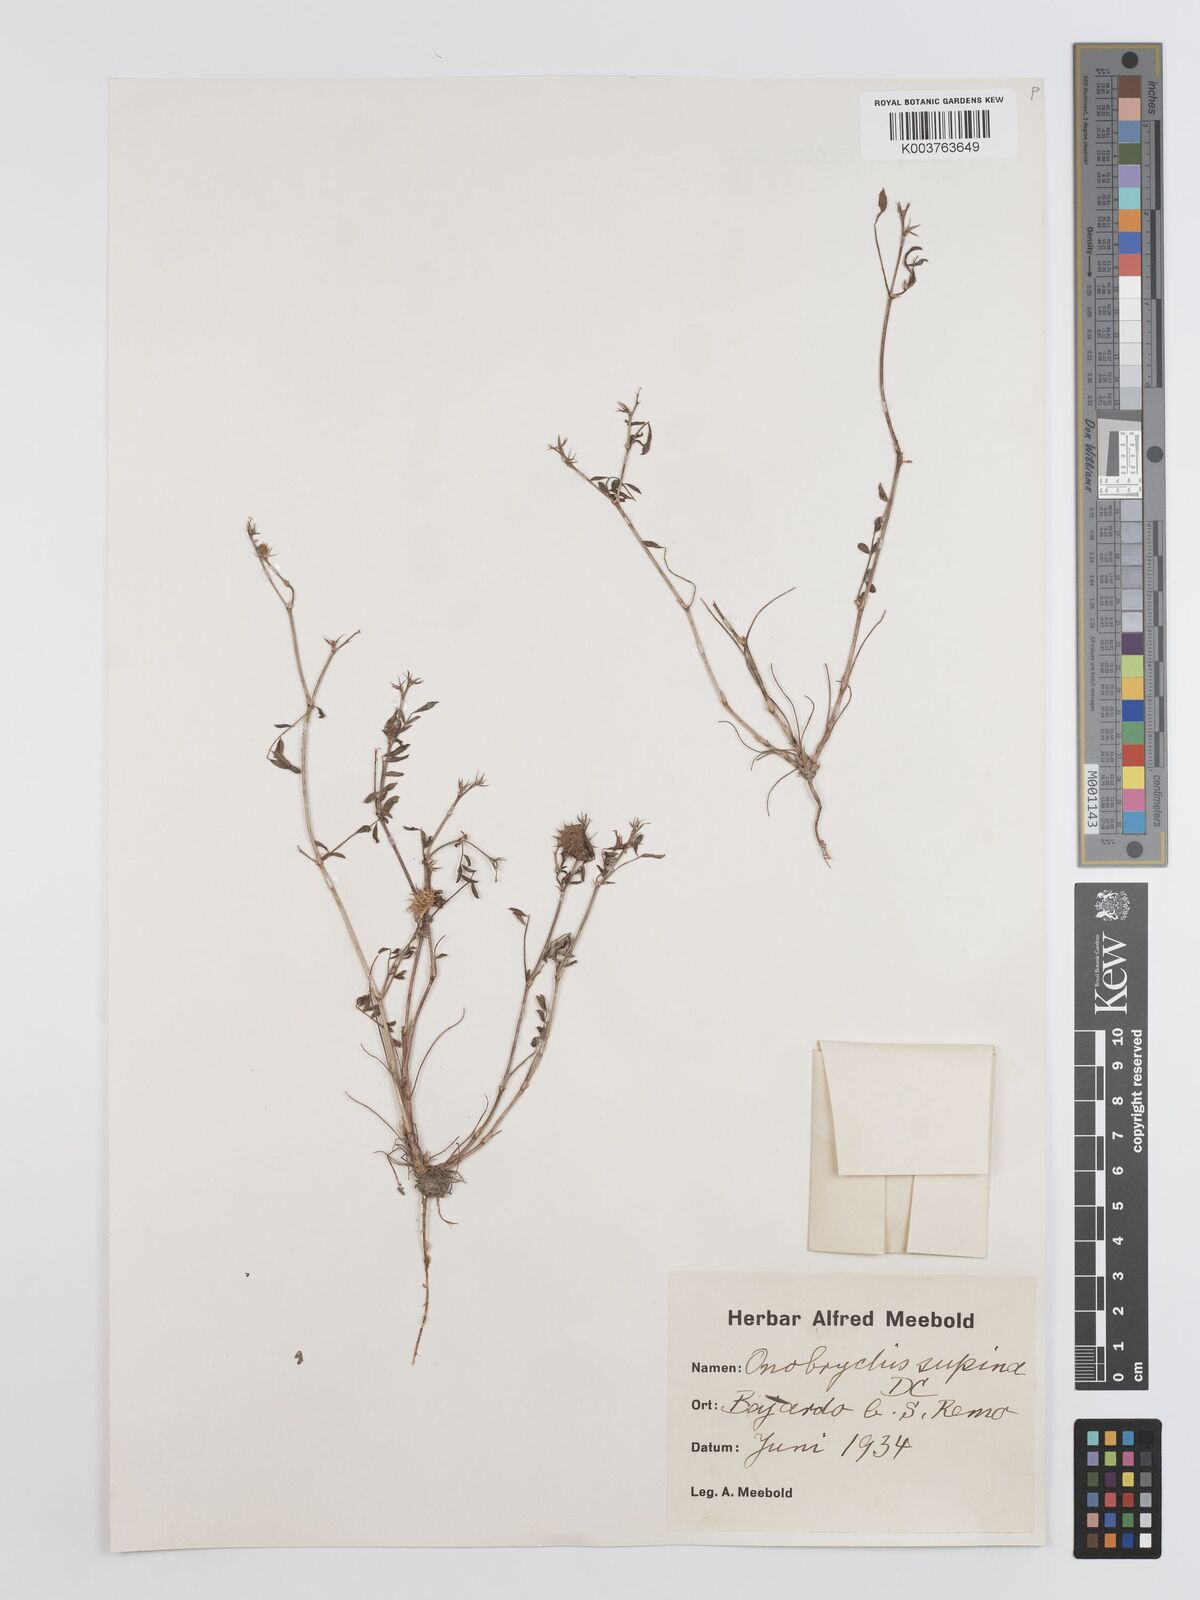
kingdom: Plantae
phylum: Tracheophyta
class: Magnoliopsida
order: Fabales
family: Fabaceae
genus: Onobrychis
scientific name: Onobrychis supina
